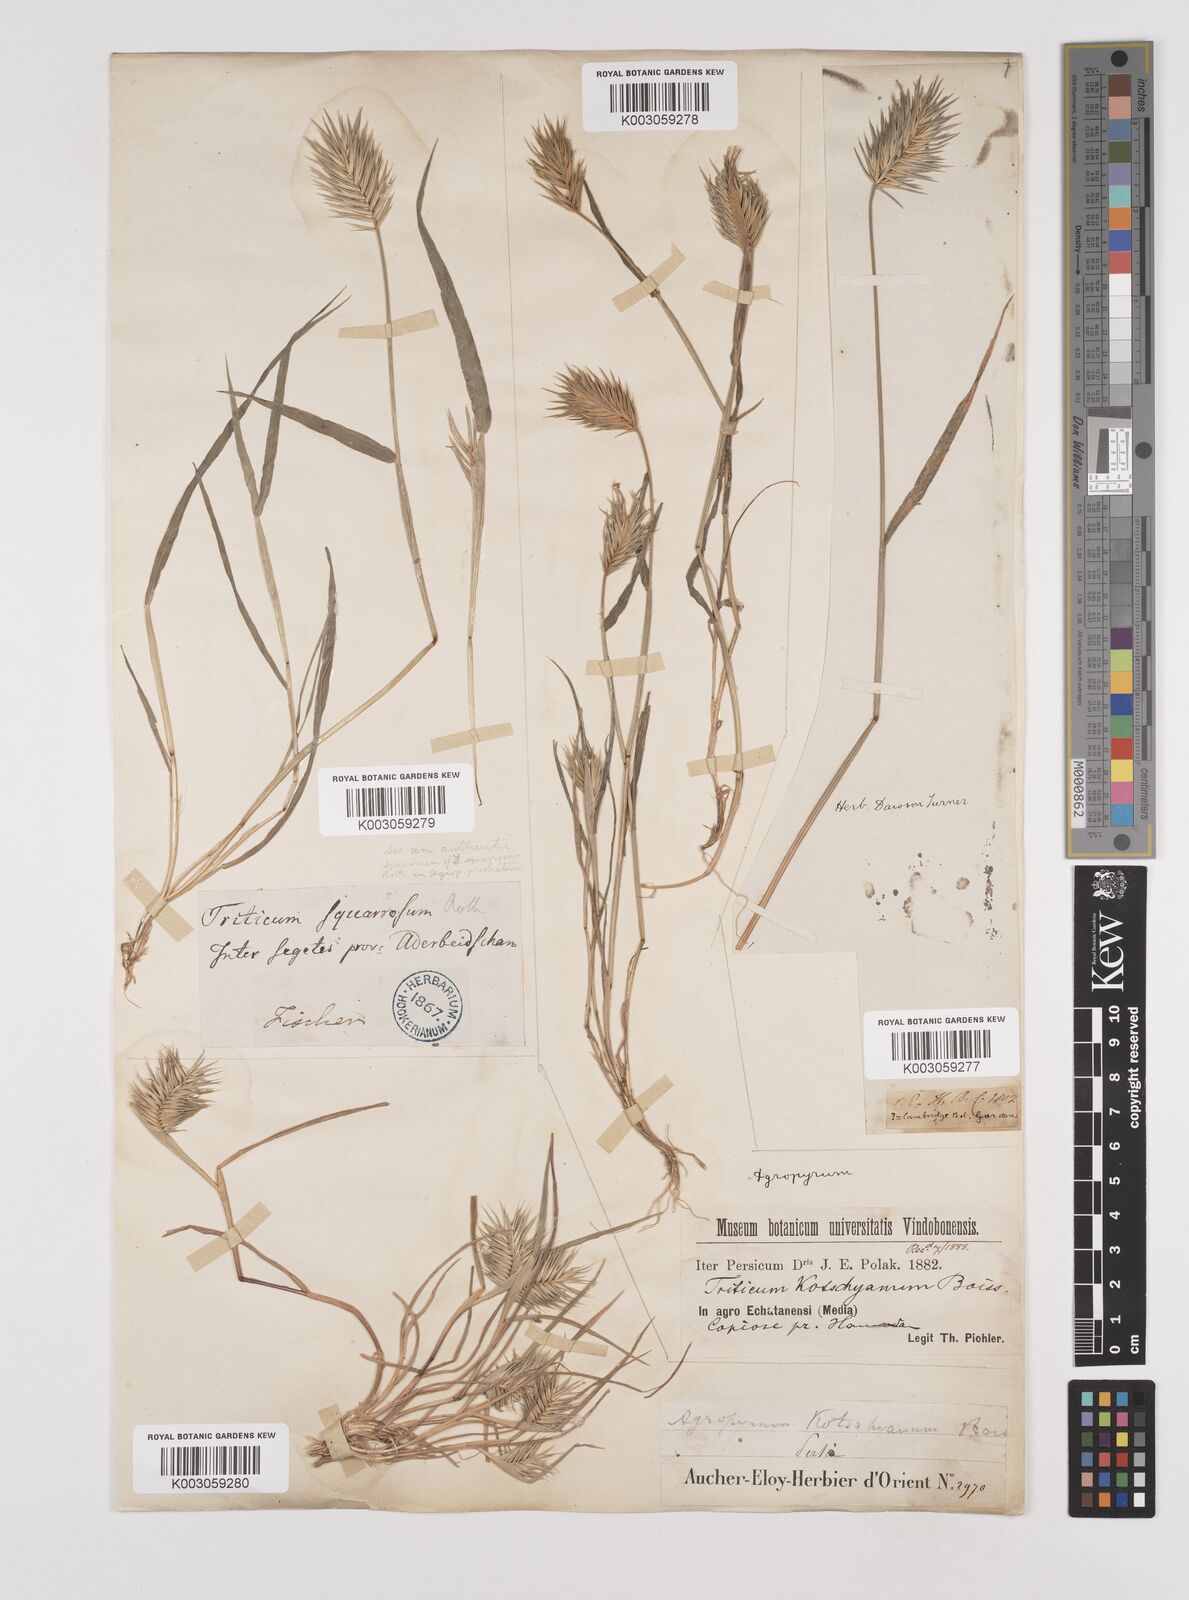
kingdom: Plantae
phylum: Tracheophyta
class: Liliopsida
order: Poales
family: Poaceae
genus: Eremopyrum
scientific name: Eremopyrum bonaepartis
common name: Tapertip false wheatgrass
